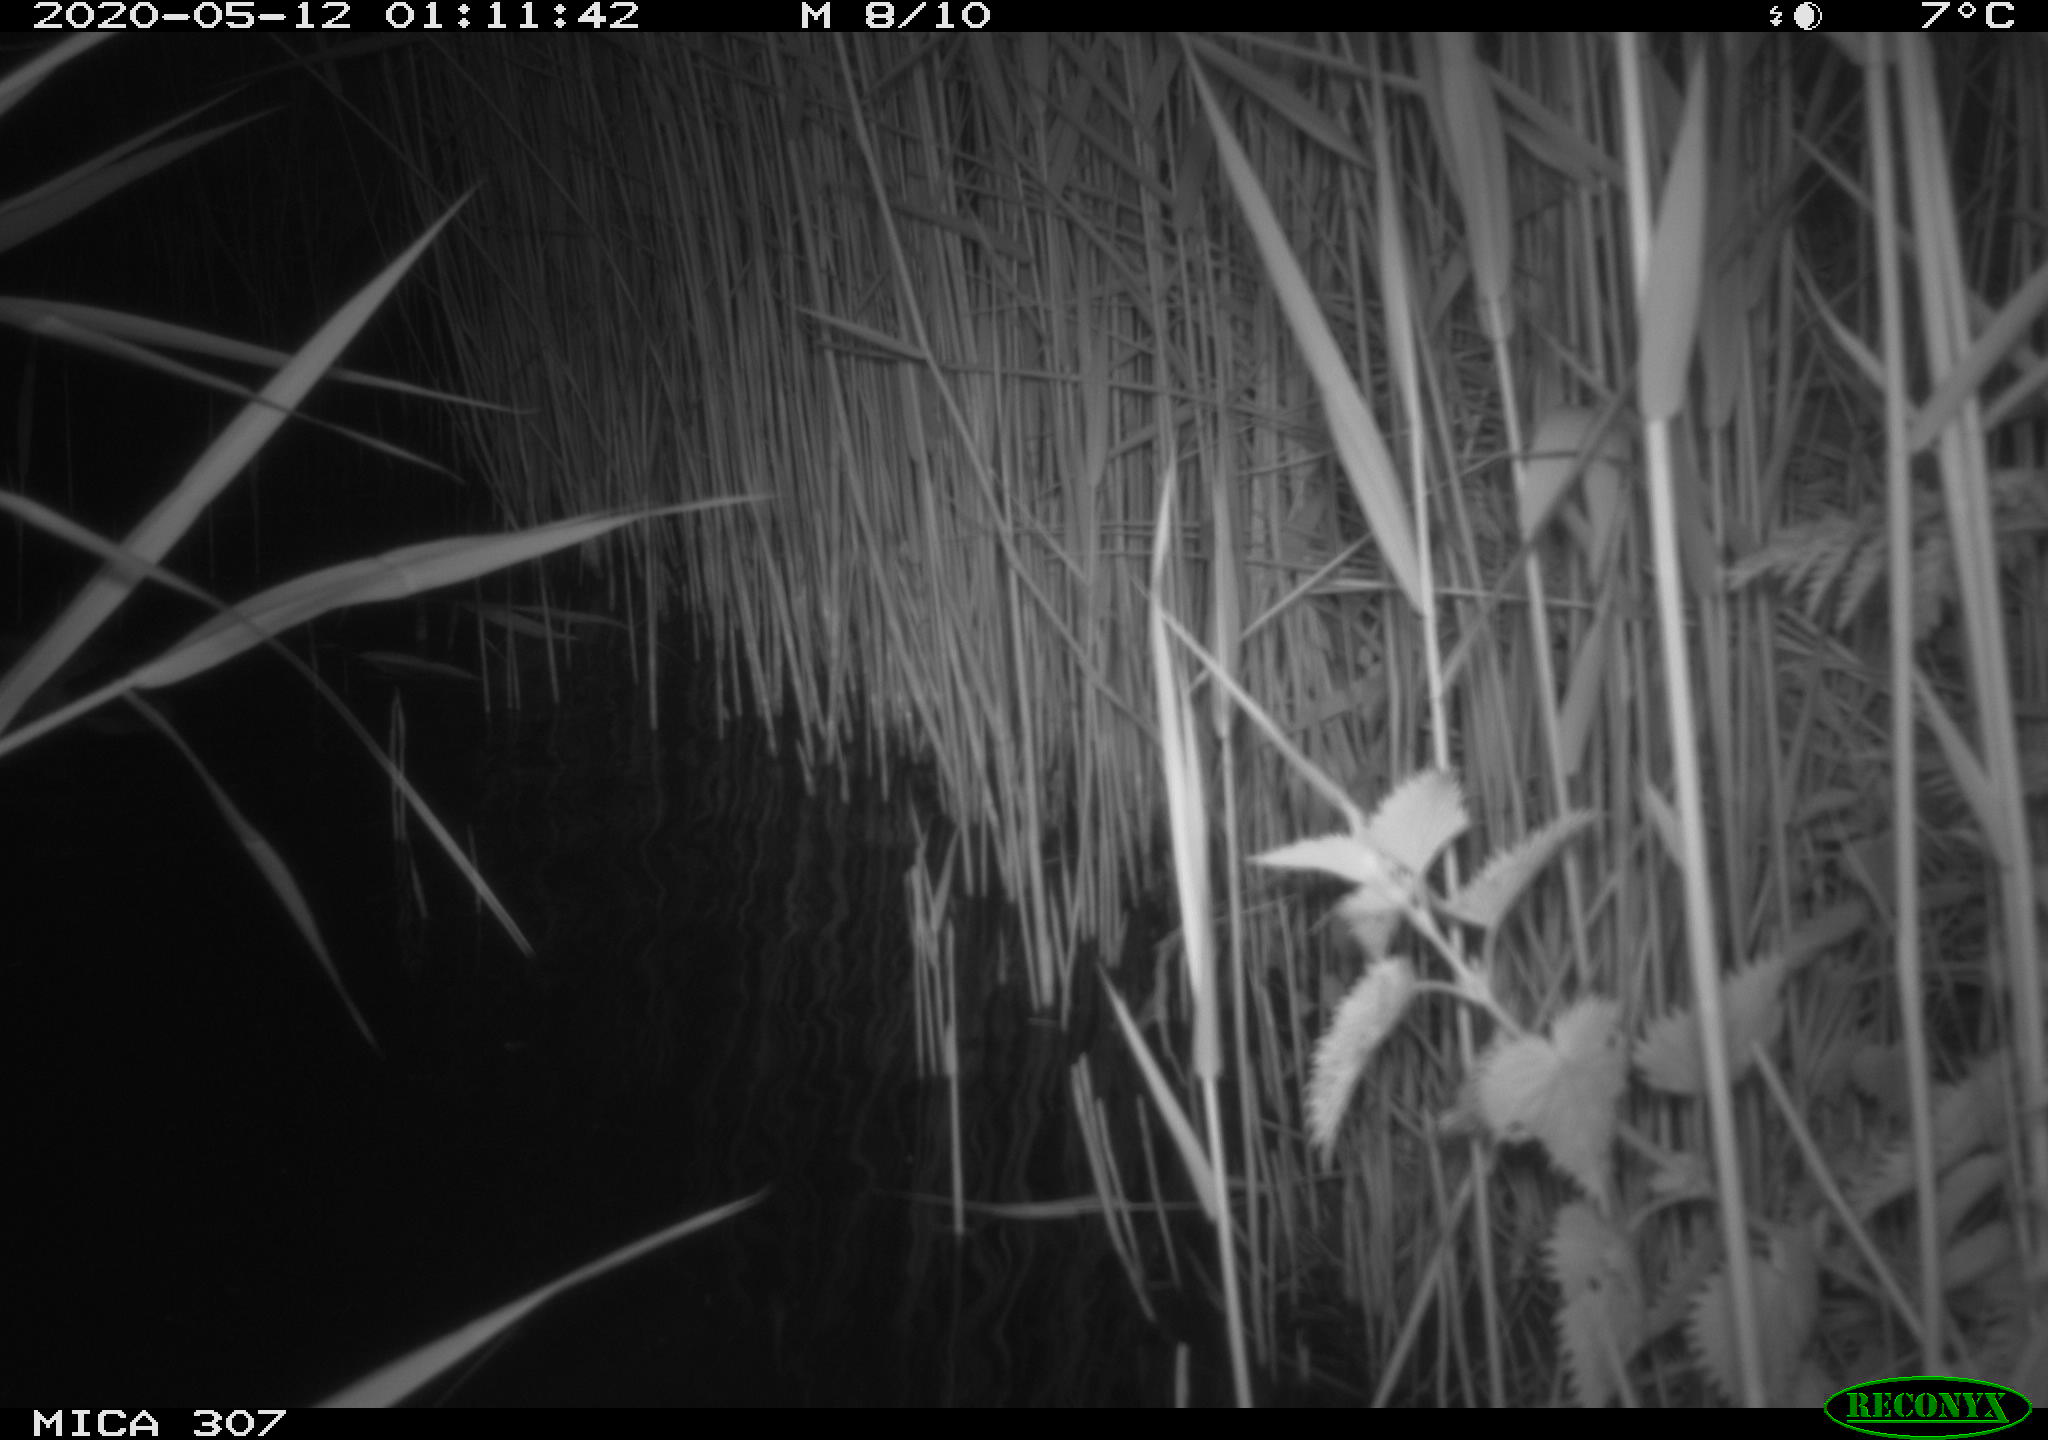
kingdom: Animalia
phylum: Chordata
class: Aves
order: Anseriformes
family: Anatidae
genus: Anas
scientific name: Anas platyrhynchos
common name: Mallard
